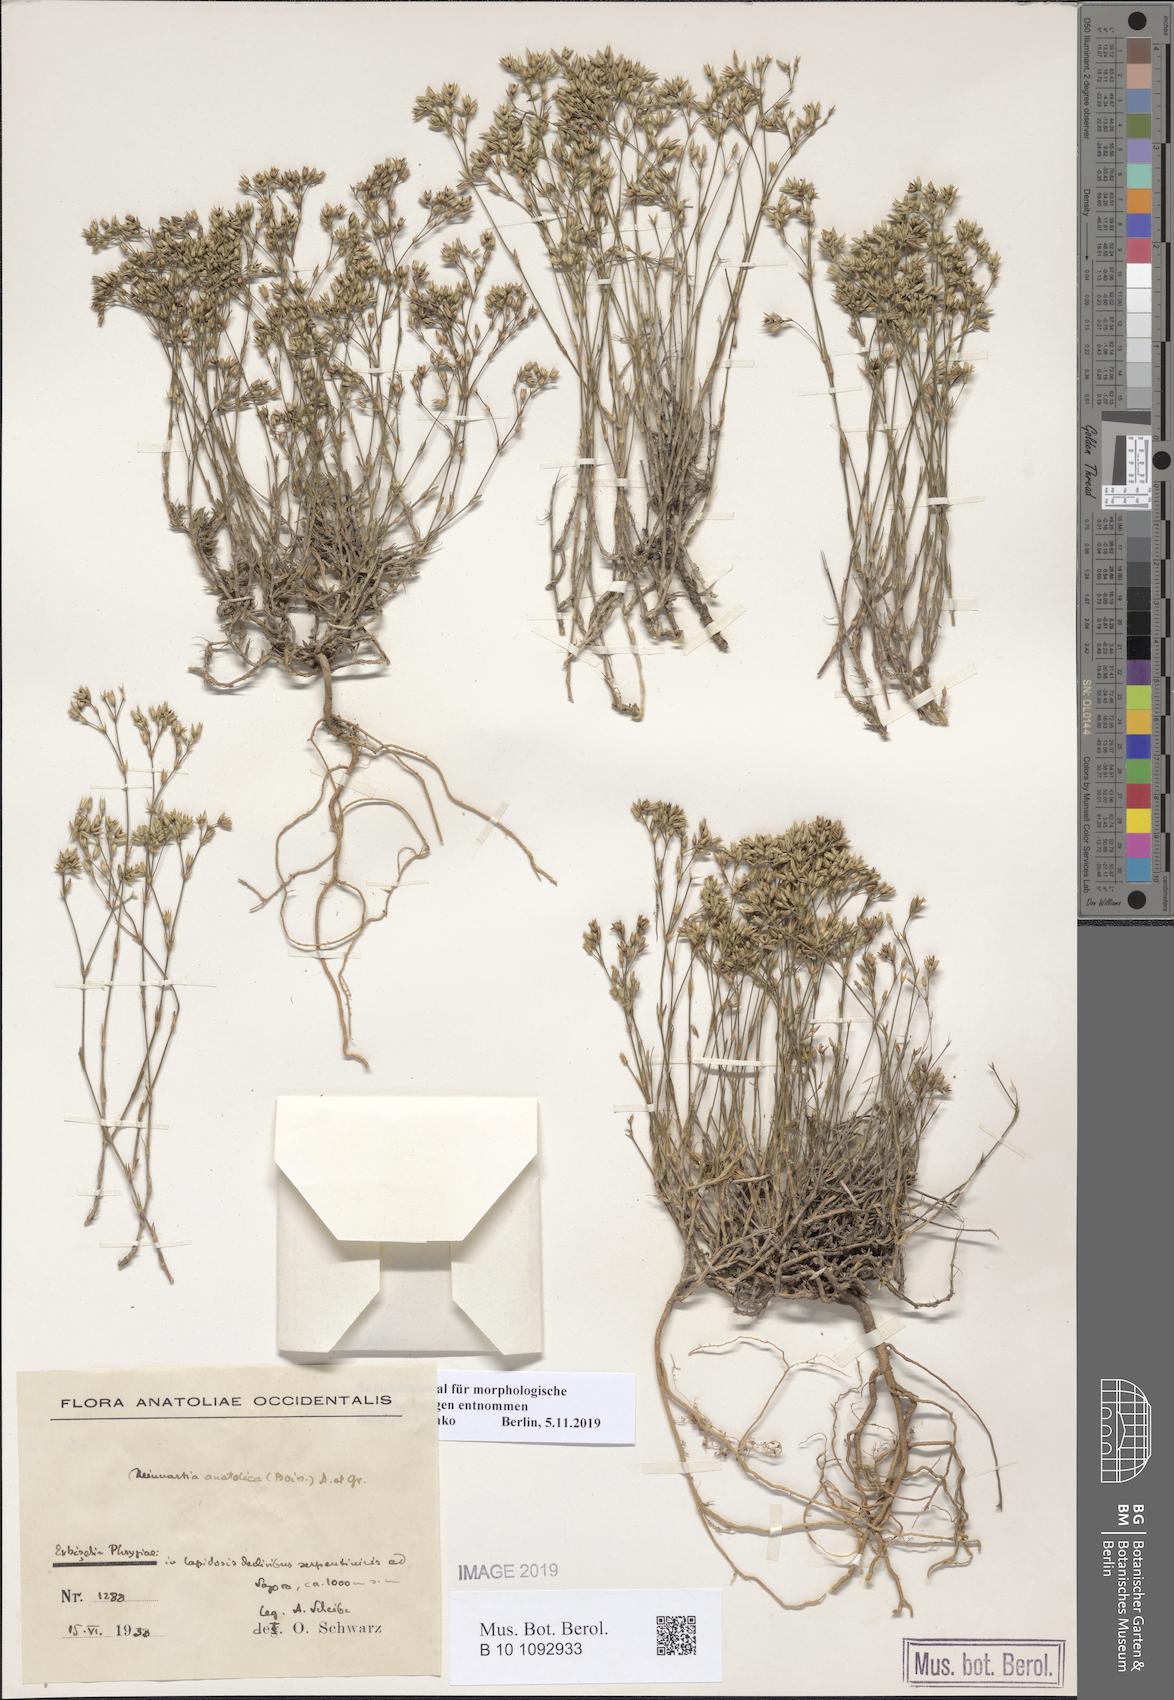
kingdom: Plantae
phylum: Tracheophyta
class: Magnoliopsida
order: Caryophyllales
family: Caryophyllaceae
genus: Minuartia
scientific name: Minuartia anatolica
